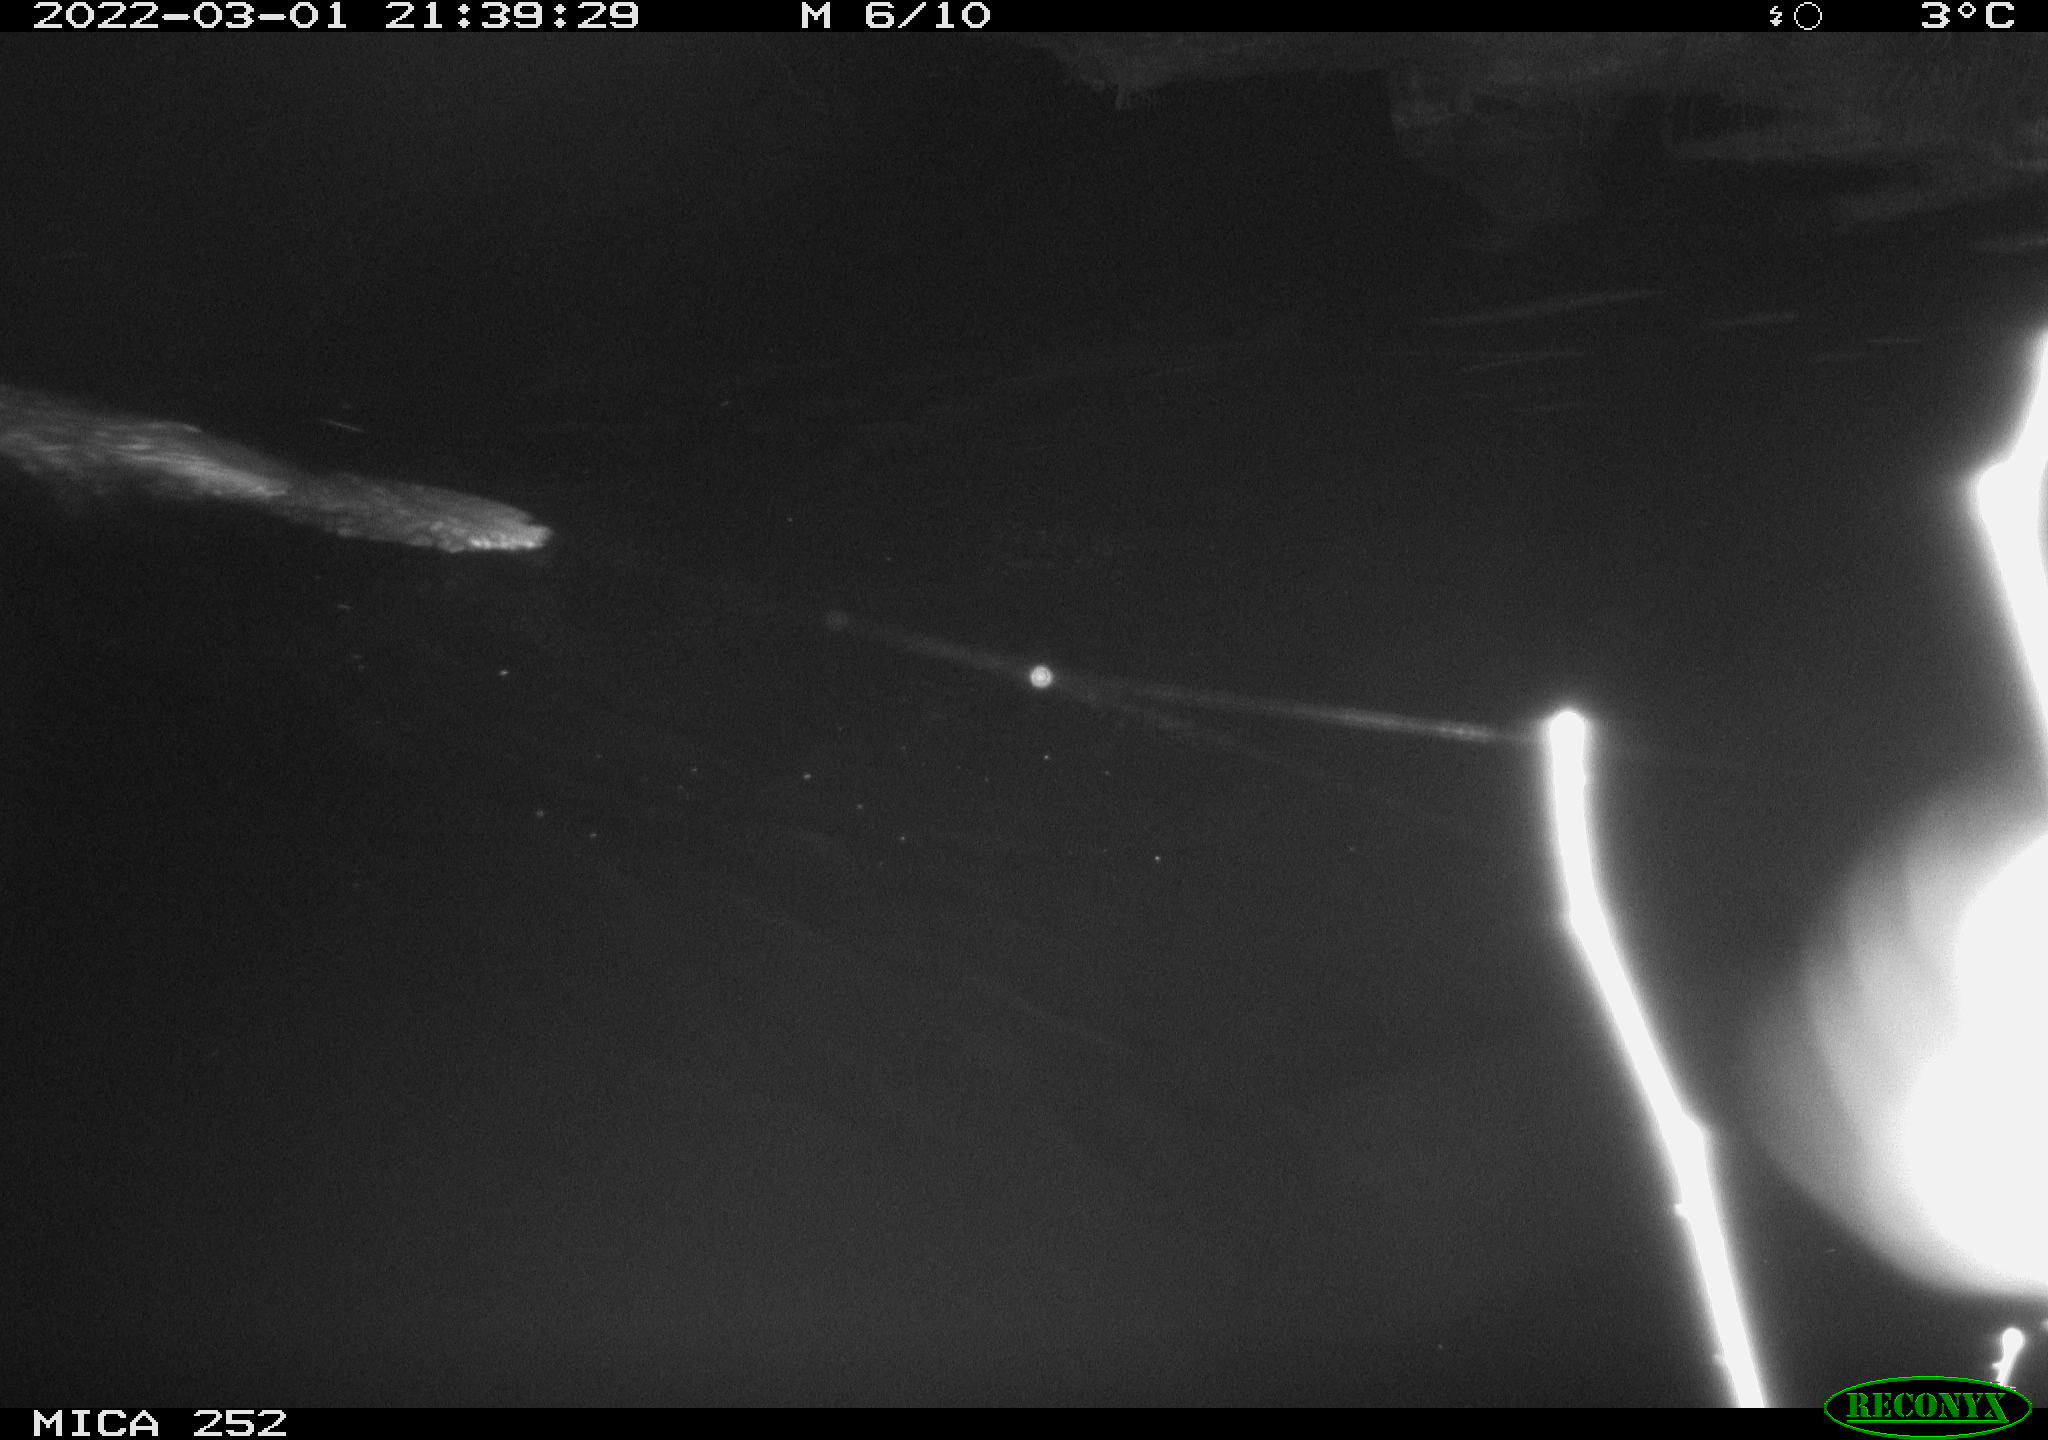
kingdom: Animalia
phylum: Chordata
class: Mammalia
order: Rodentia
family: Castoridae
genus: Castor
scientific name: Castor fiber
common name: Eurasian beaver
